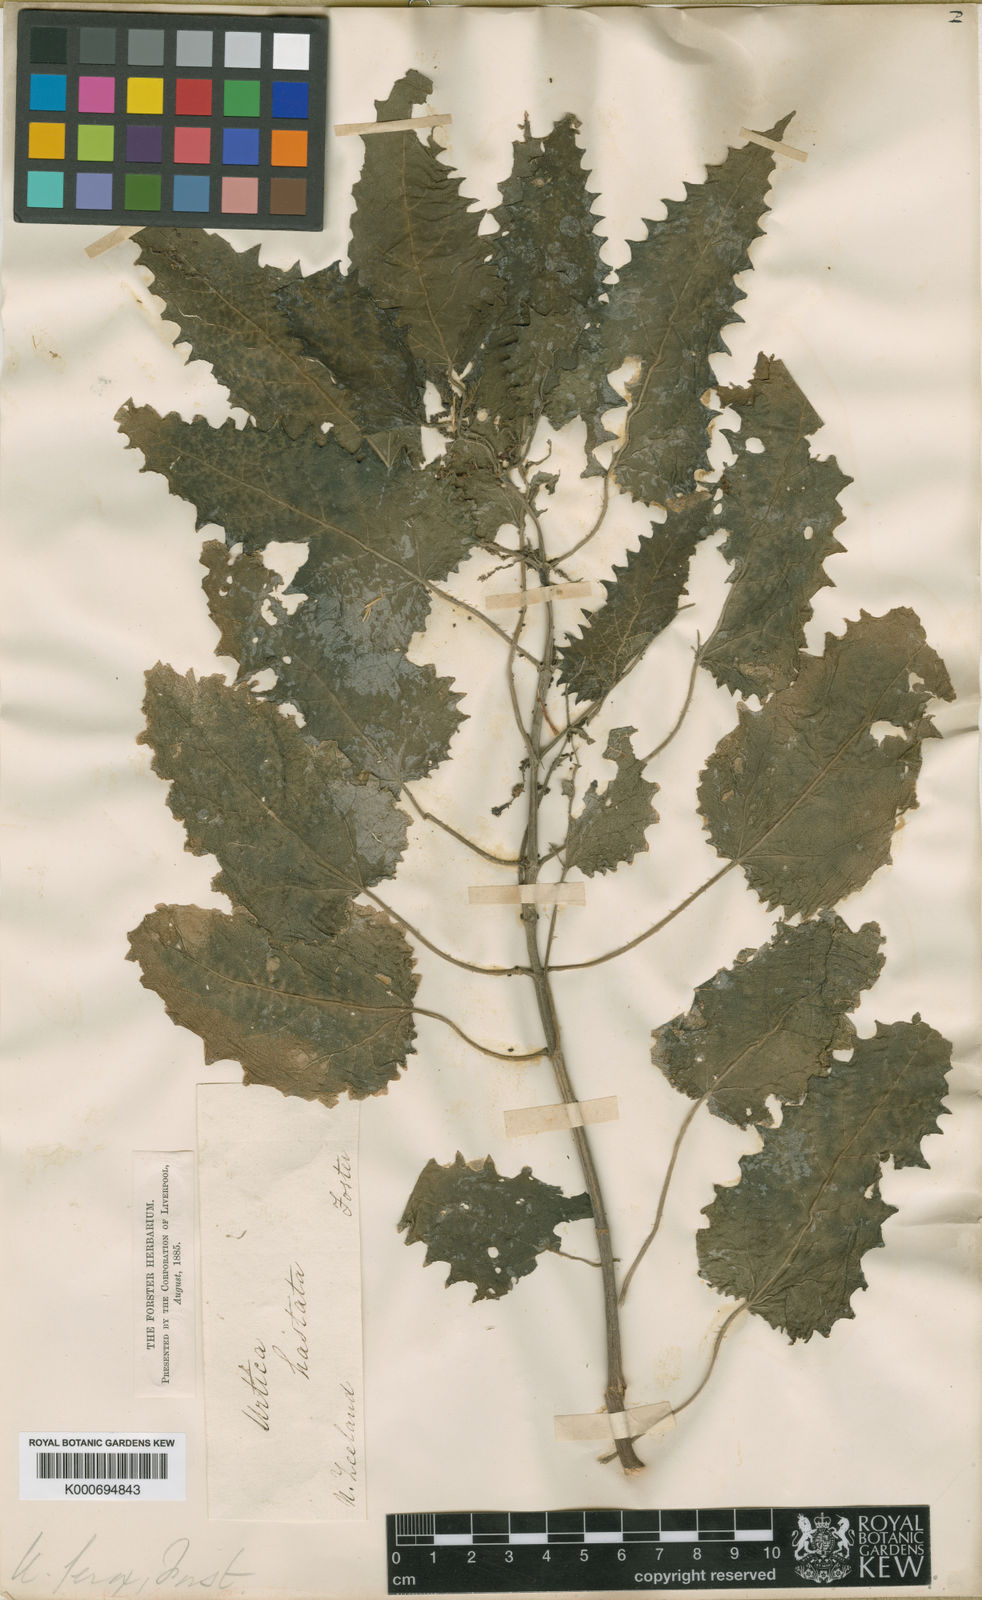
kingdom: Plantae
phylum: Tracheophyta
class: Magnoliopsida
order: Rosales
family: Urticaceae
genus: Urtica
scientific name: Urtica ferox
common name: Tree nettle
